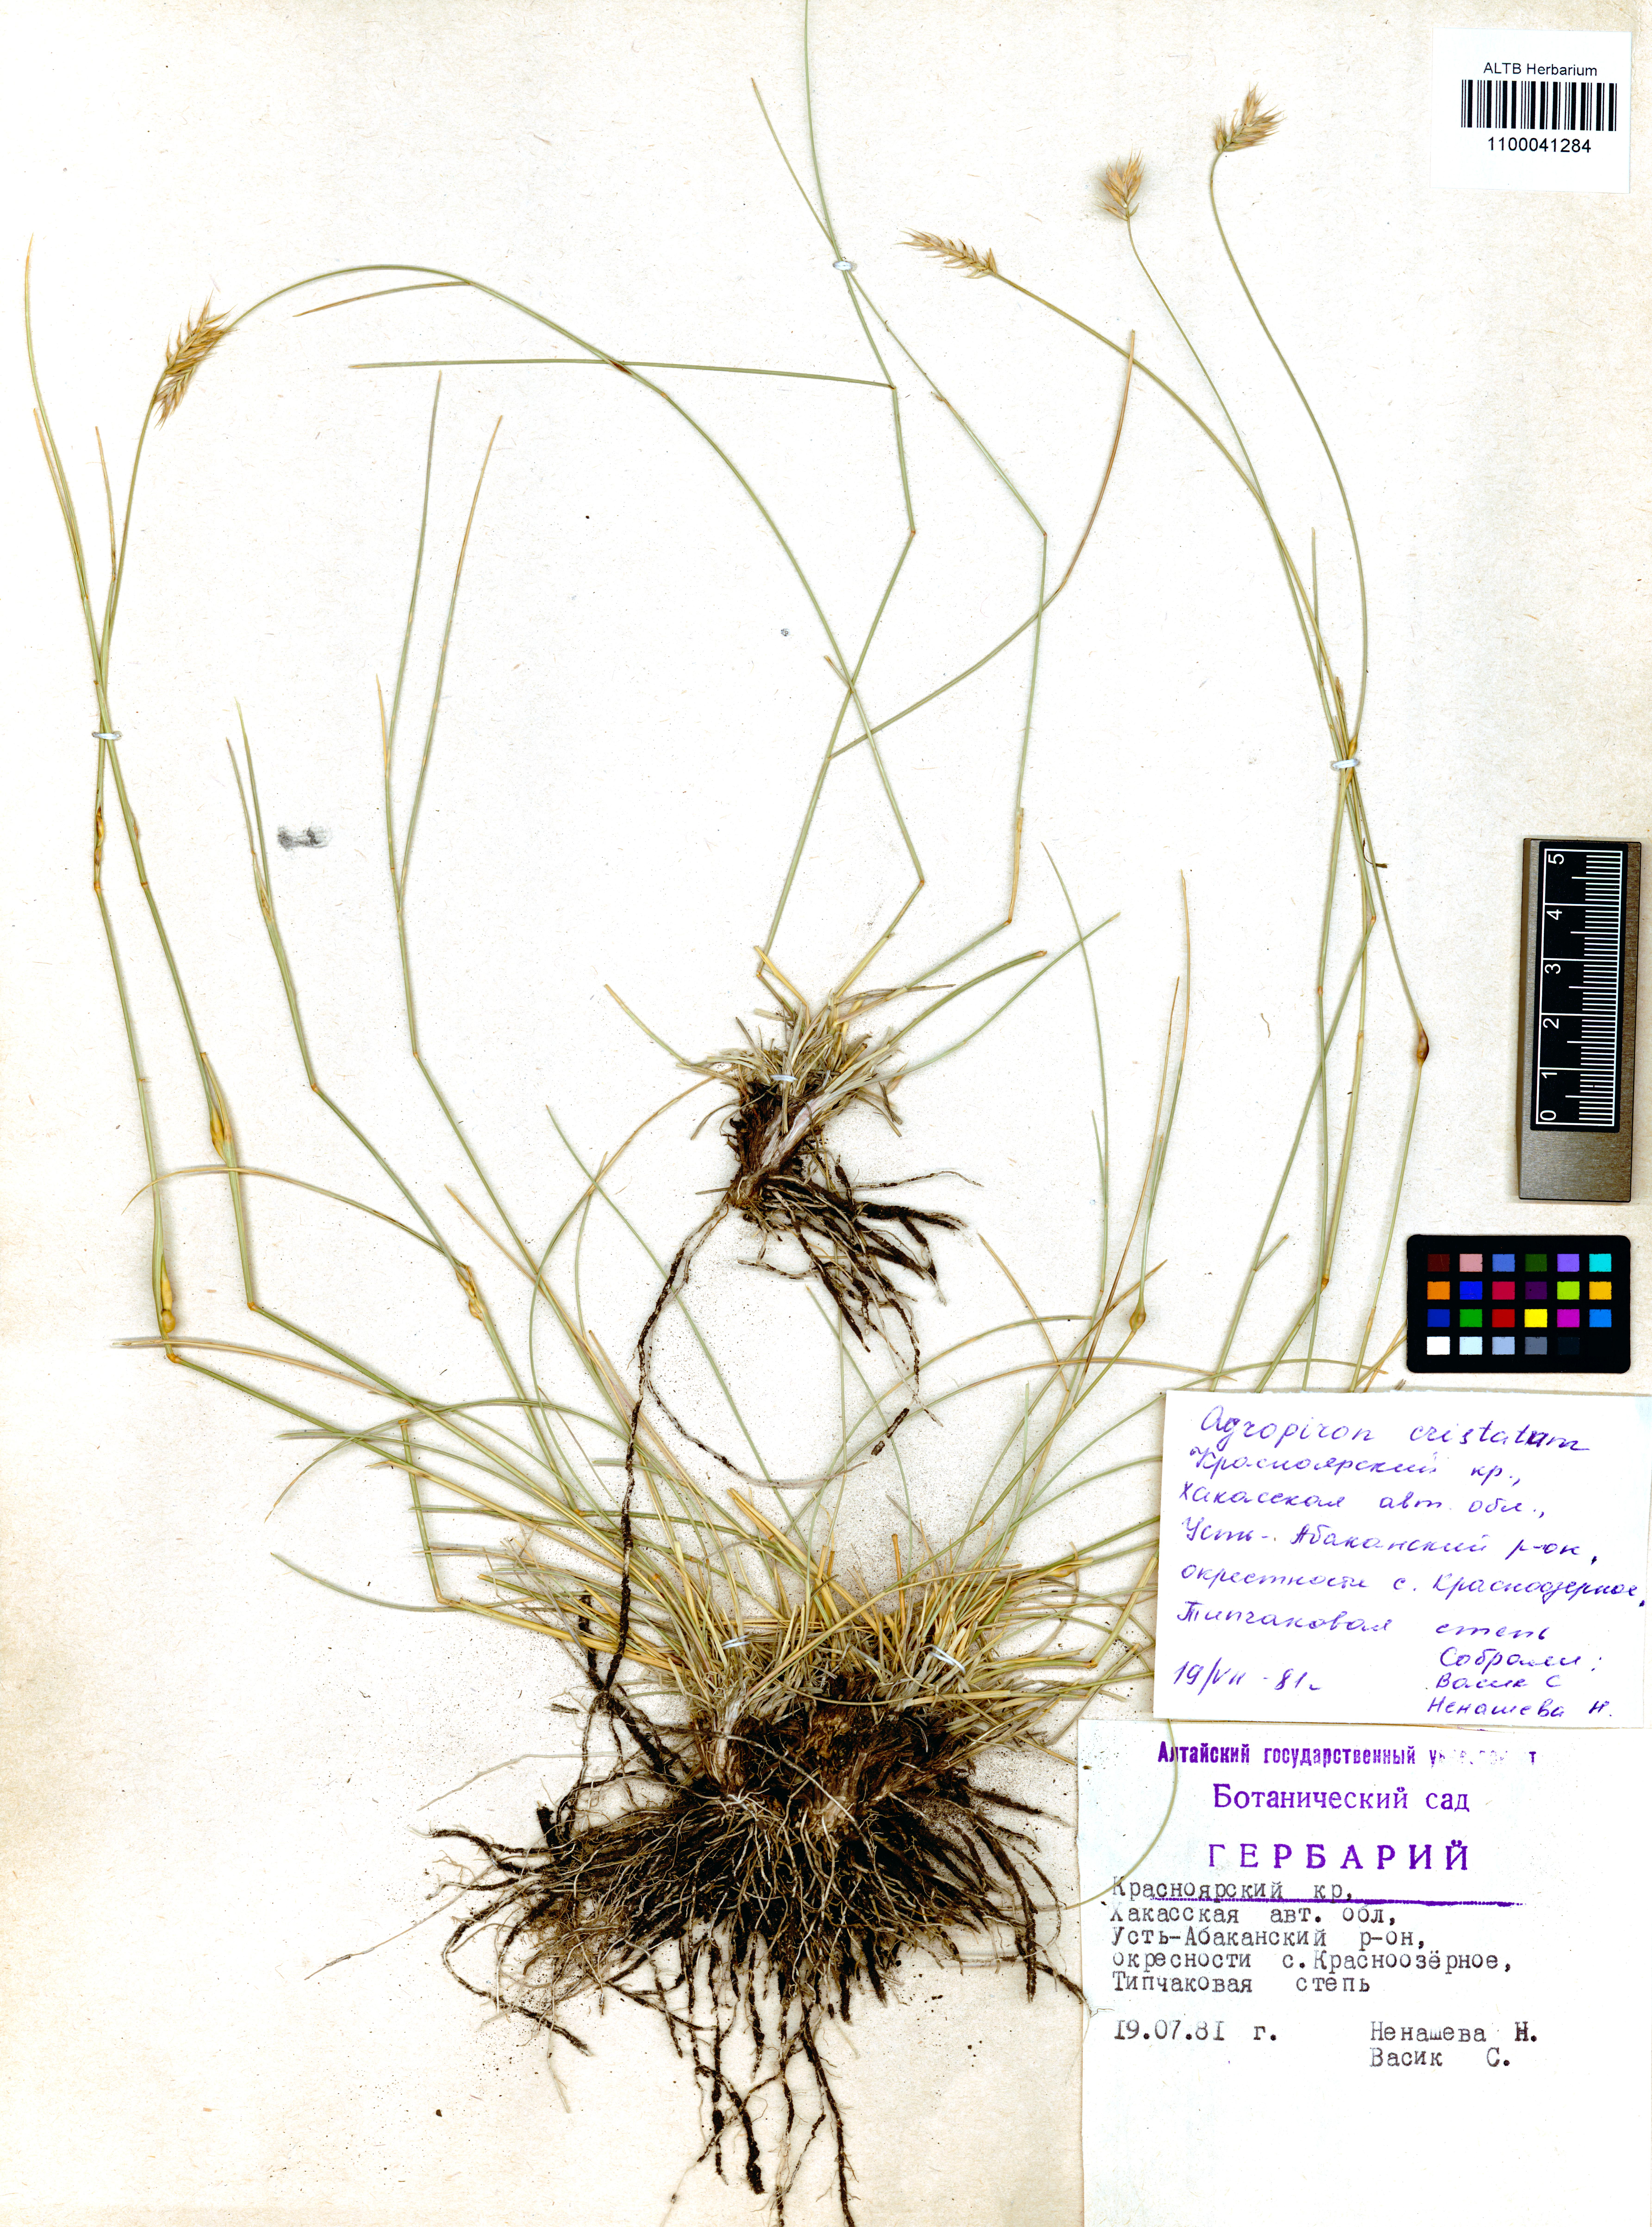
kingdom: Plantae
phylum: Tracheophyta
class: Liliopsida
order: Poales
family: Poaceae
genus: Agropyron
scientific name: Agropyron cristatum
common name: Crested wheatgrass
